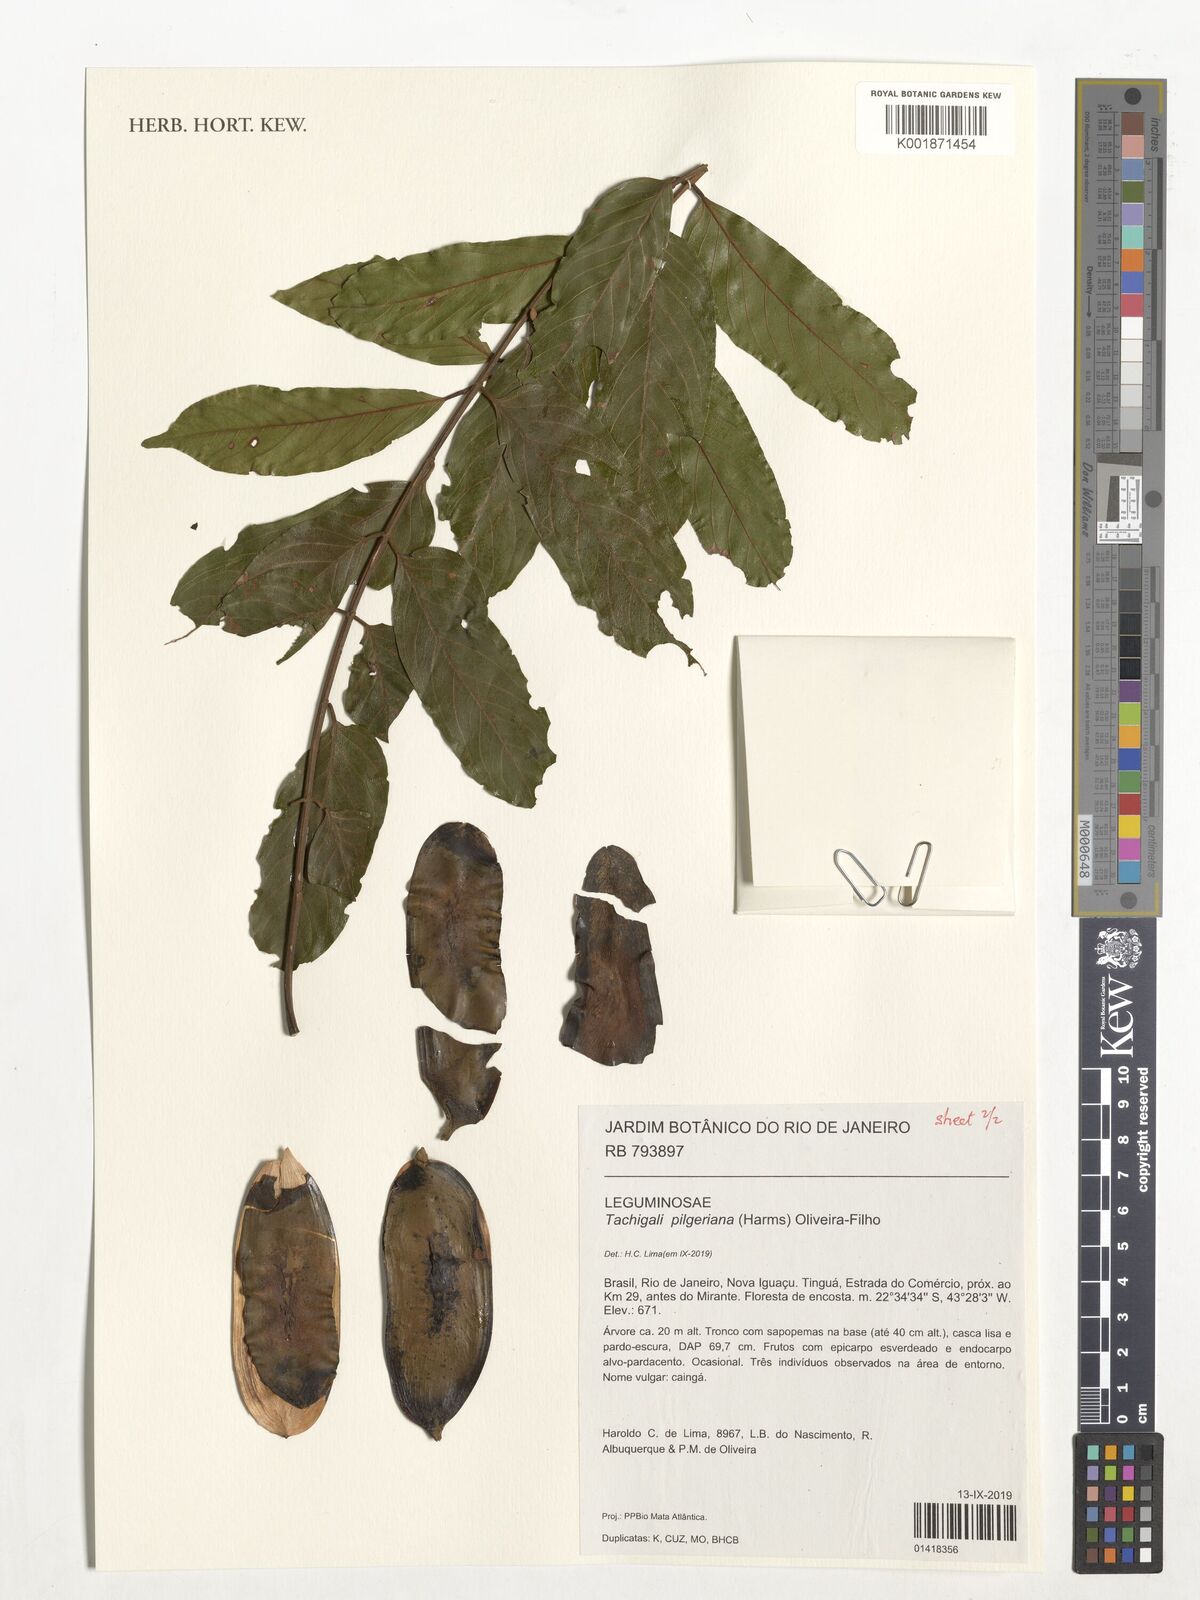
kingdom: Plantae
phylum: Tracheophyta
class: Magnoliopsida
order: Fabales
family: Fabaceae
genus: Tachigali
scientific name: Tachigali pilgeriana
